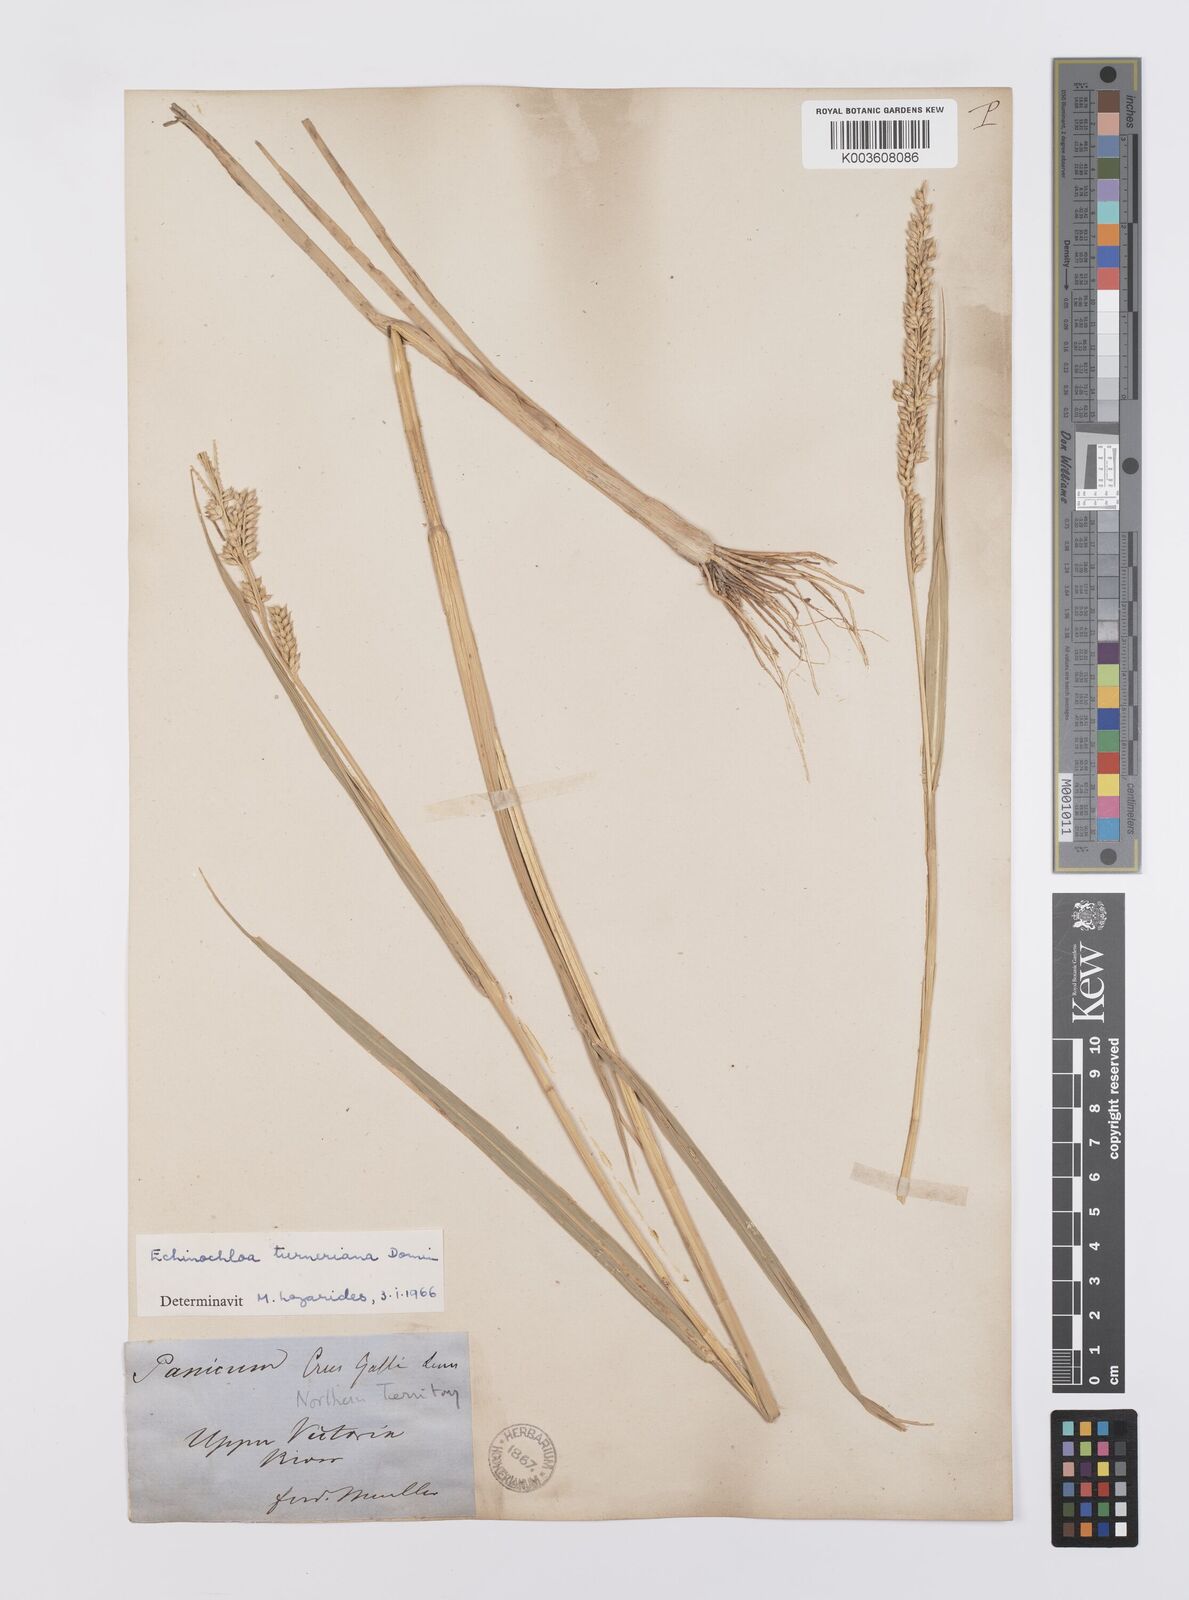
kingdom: Plantae
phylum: Tracheophyta
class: Liliopsida
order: Poales
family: Poaceae
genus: Echinochloa
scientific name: Echinochloa turneriana
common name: Channel millet
